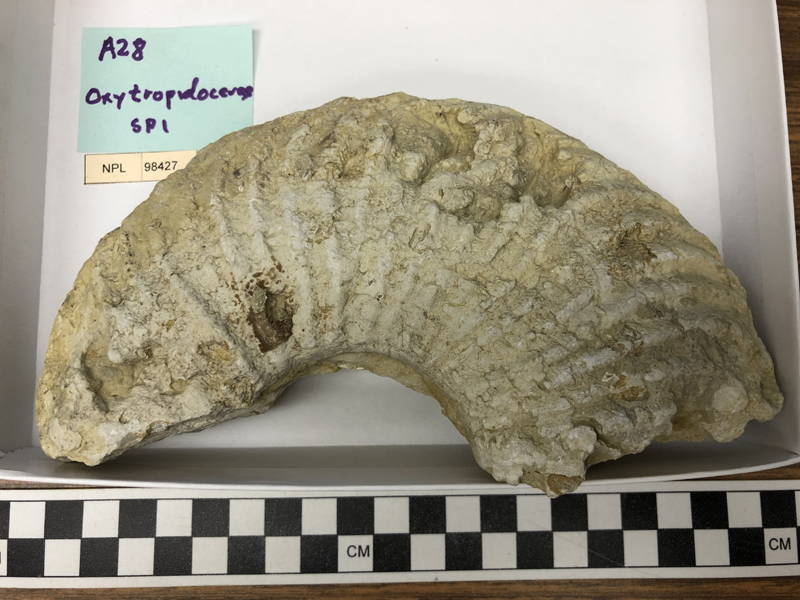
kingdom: Animalia
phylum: Mollusca
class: Cephalopoda
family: Brancoceratidae
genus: Oxytropidoceras
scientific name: Oxytropidoceras
